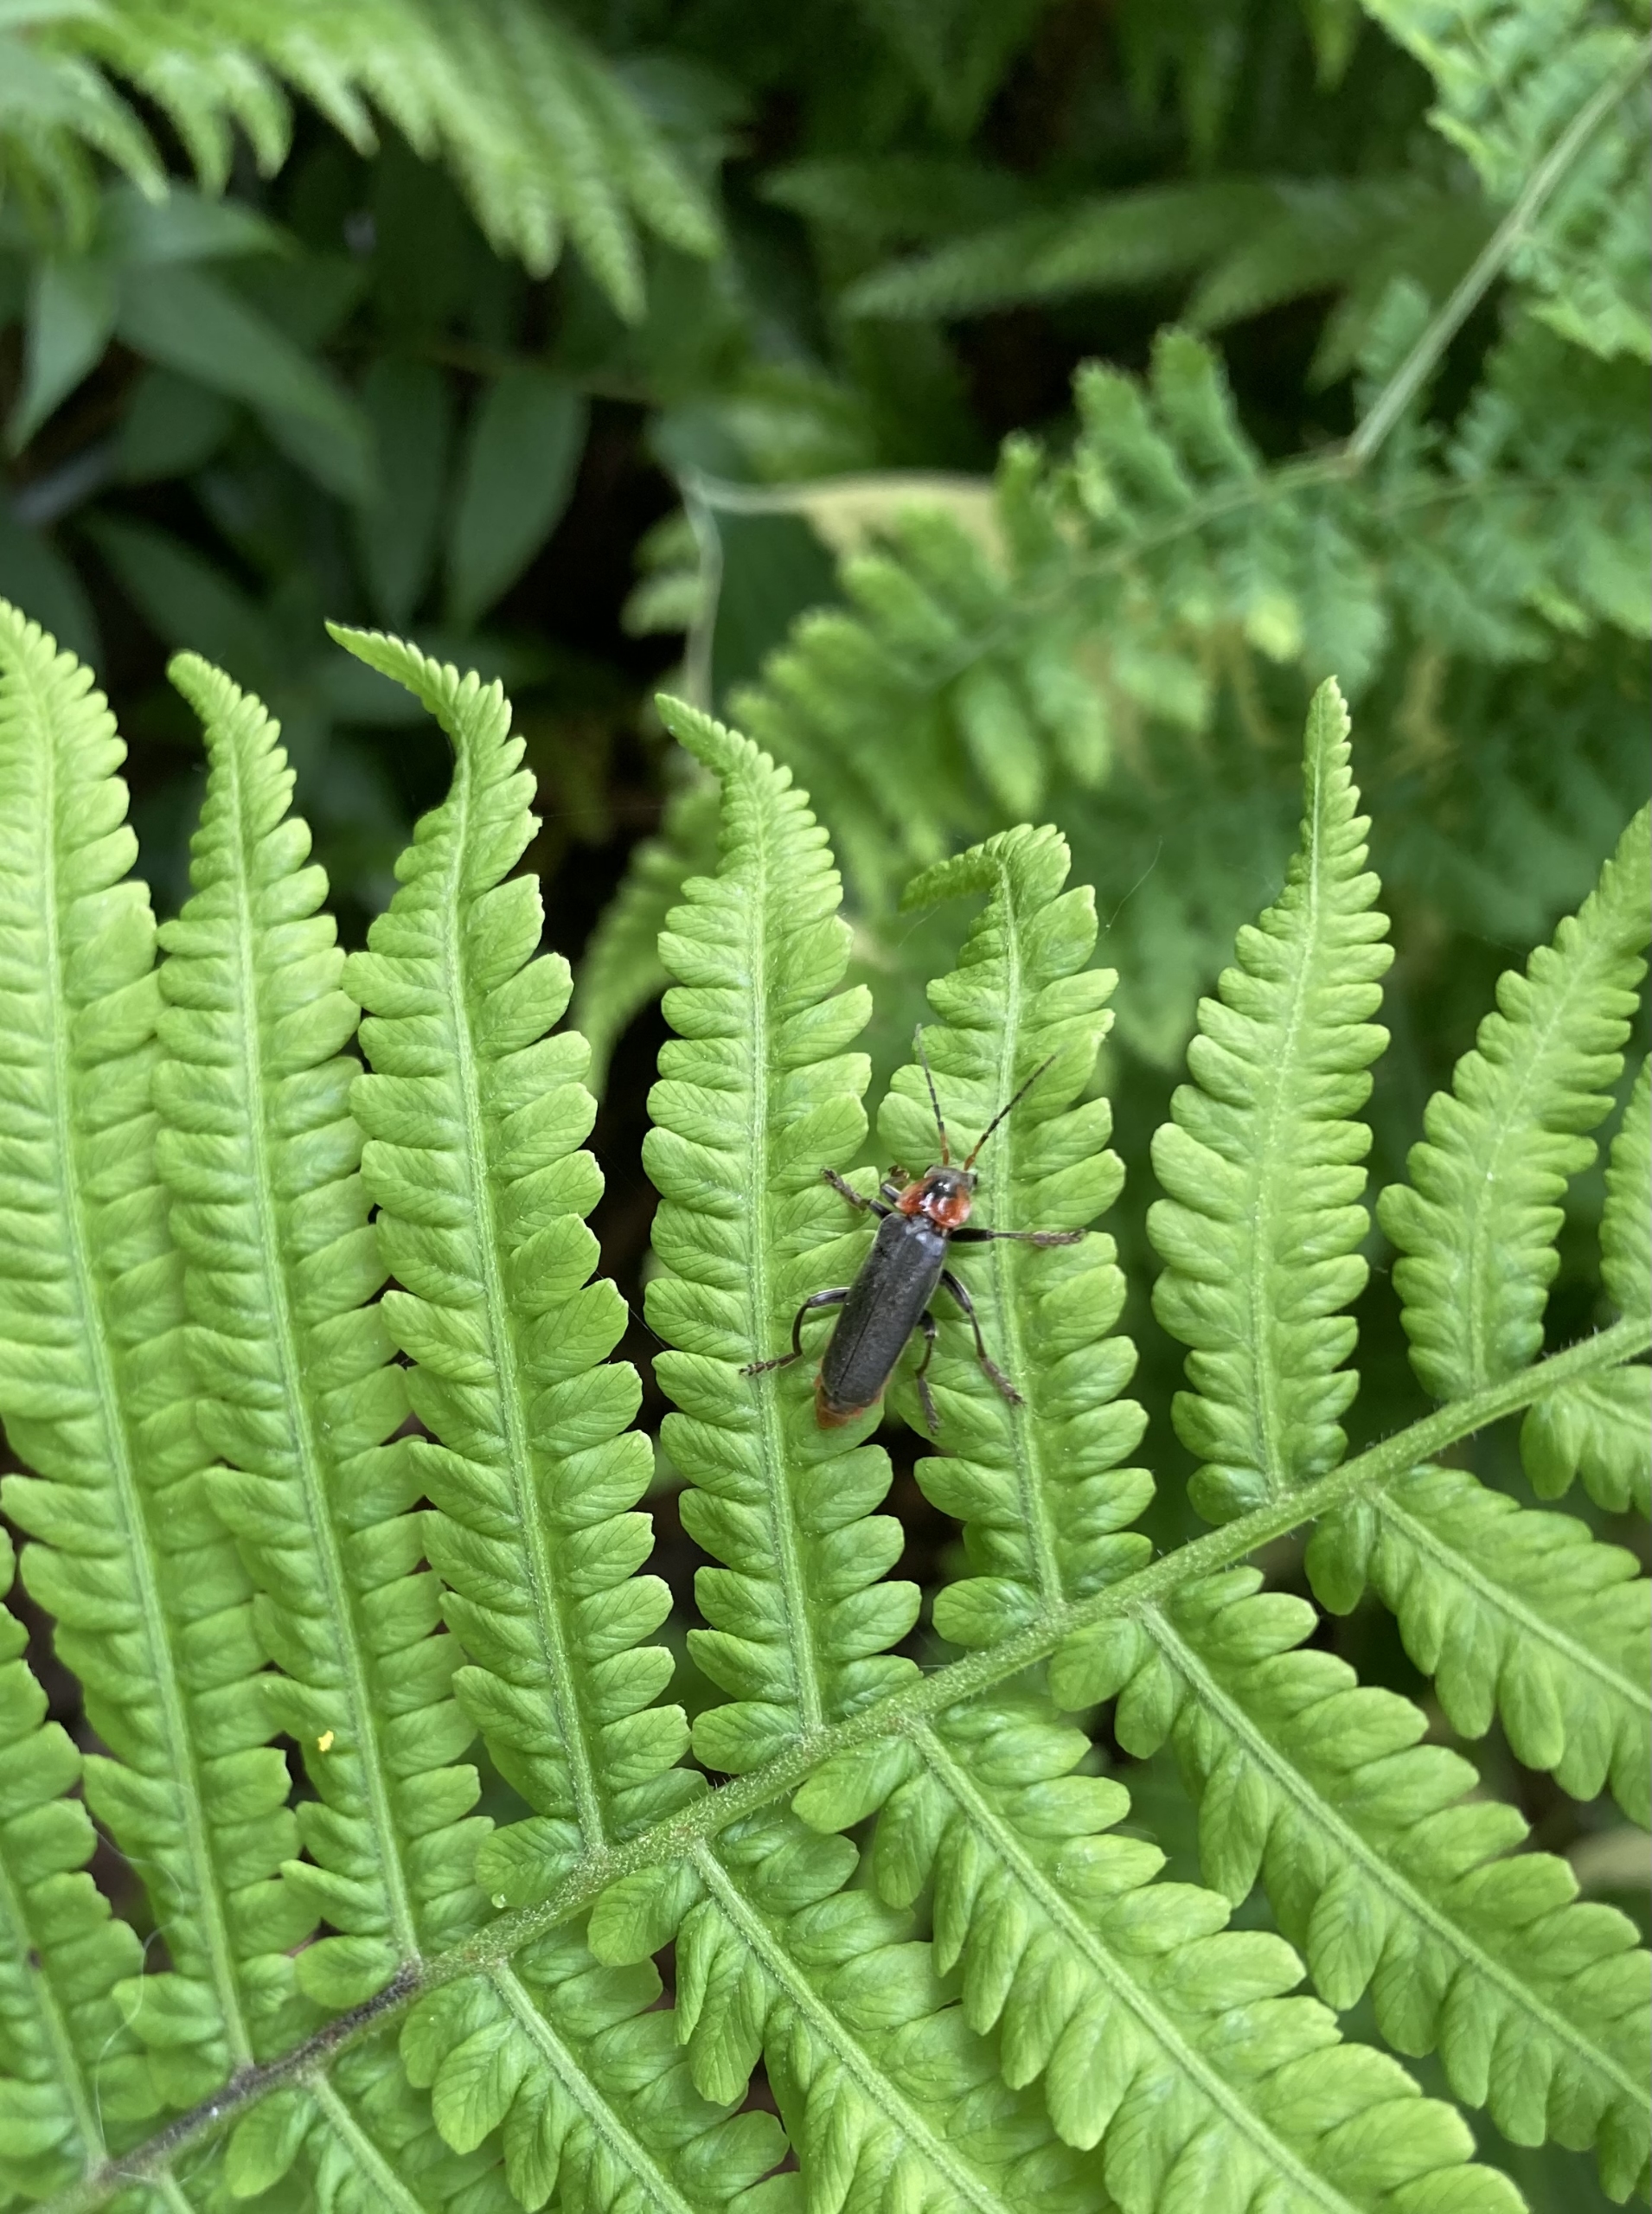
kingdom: Animalia
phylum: Arthropoda
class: Insecta
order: Coleoptera
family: Cantharidae
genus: Cantharis
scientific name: Cantharis fusca
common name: Stor blødvinge
